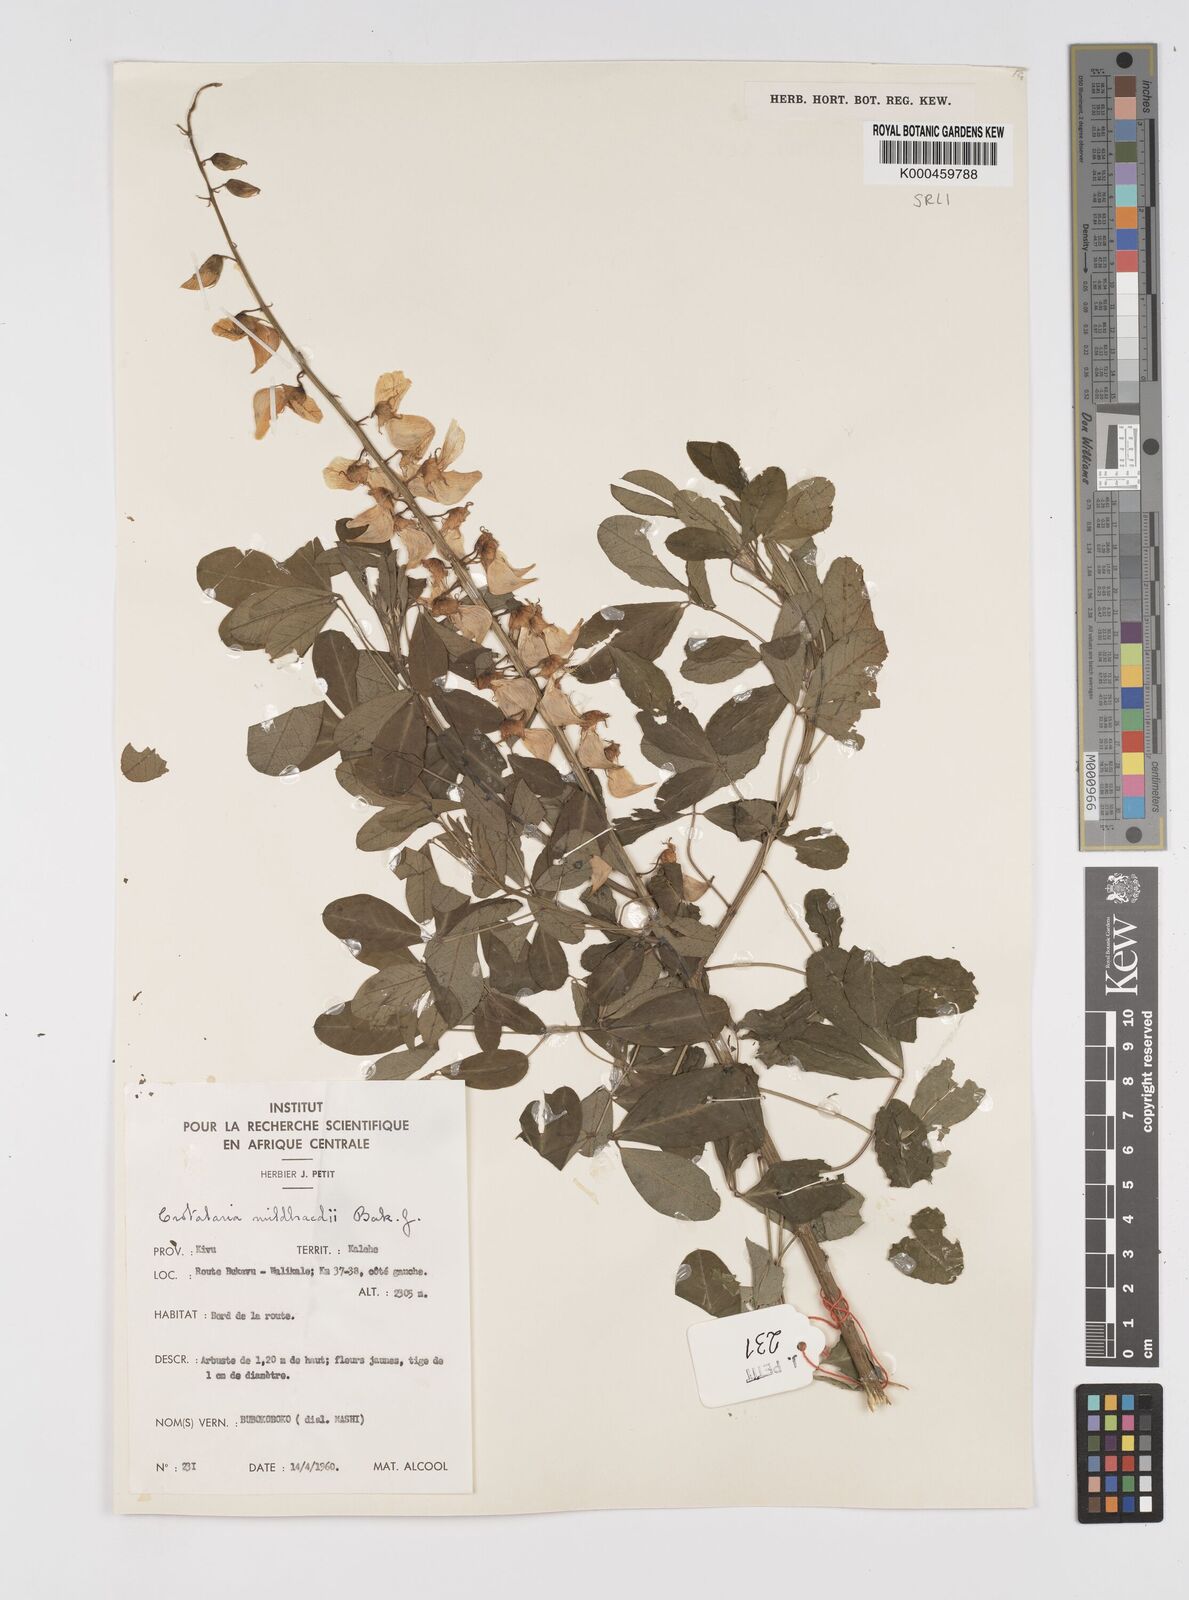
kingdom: Plantae
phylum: Tracheophyta
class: Magnoliopsida
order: Fabales
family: Fabaceae
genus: Crotalaria
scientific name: Crotalaria mildbraedii
